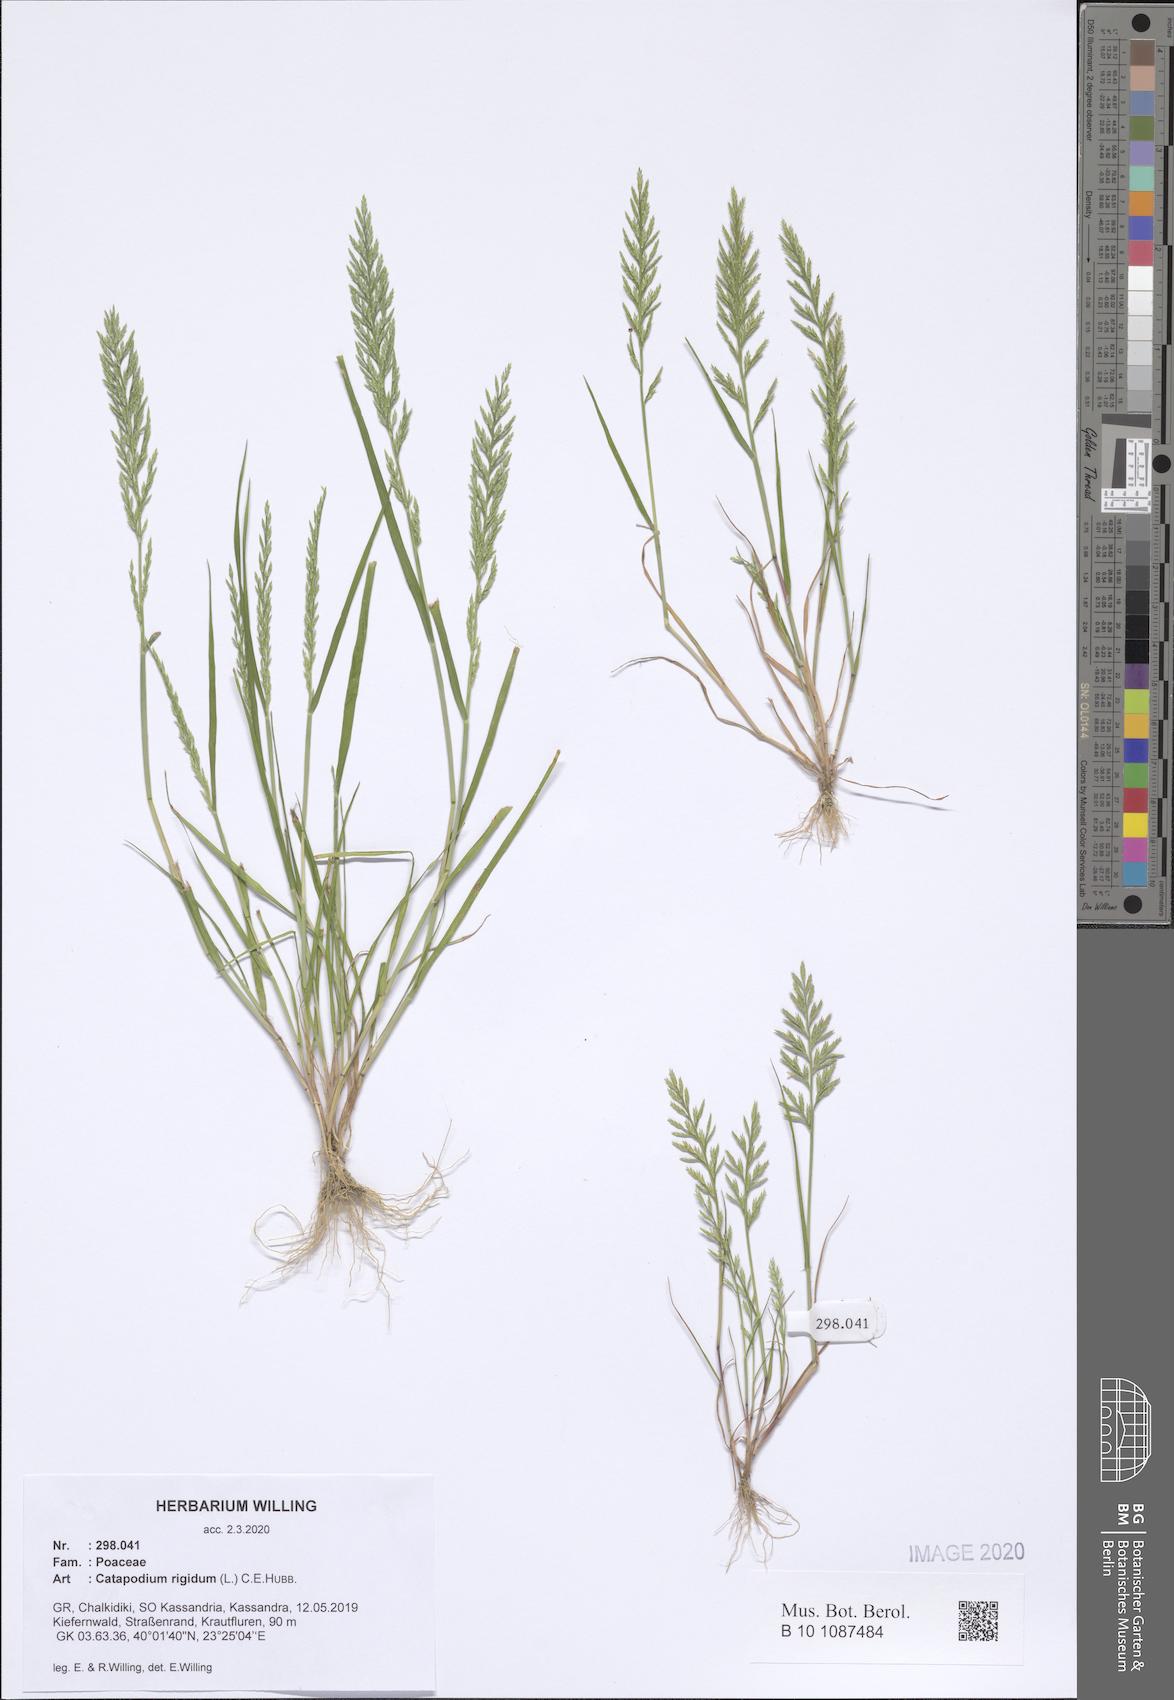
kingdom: Plantae
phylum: Tracheophyta
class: Liliopsida
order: Poales
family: Poaceae
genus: Catapodium
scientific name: Catapodium rigidum
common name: Fern-grass
